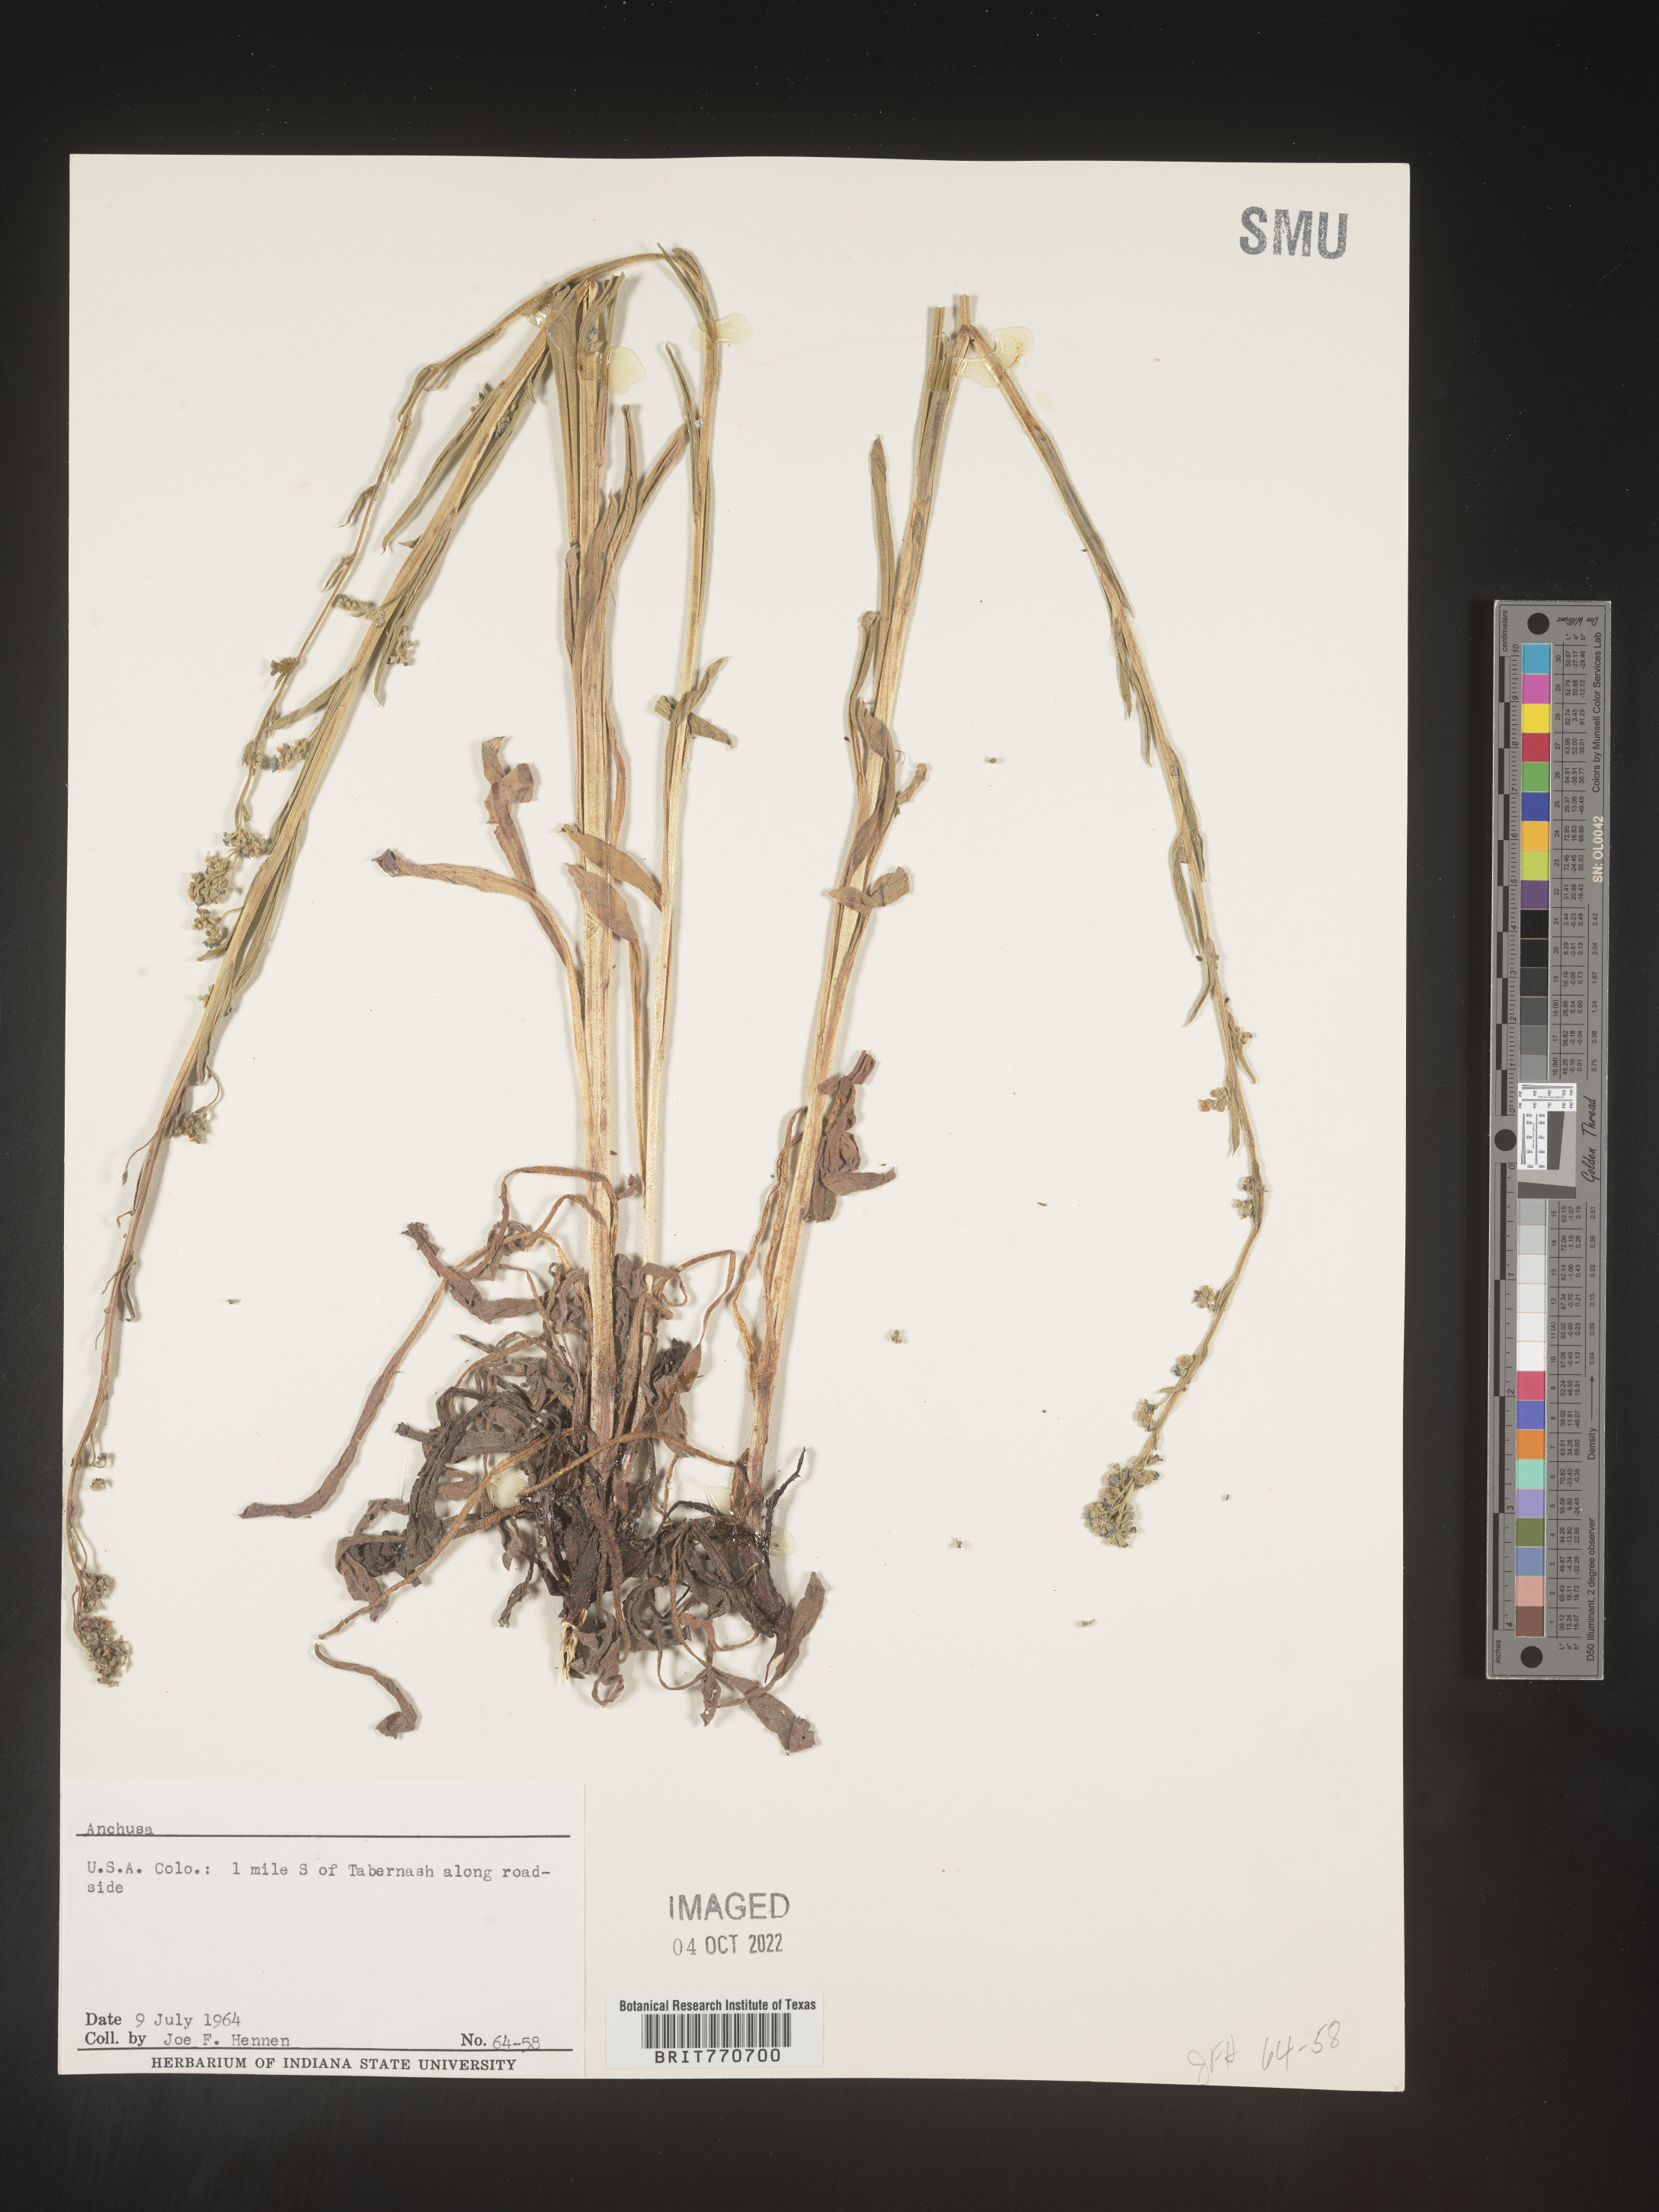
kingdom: Plantae
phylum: Tracheophyta
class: Magnoliopsida
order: Boraginales
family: Boraginaceae
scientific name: Boraginaceae
